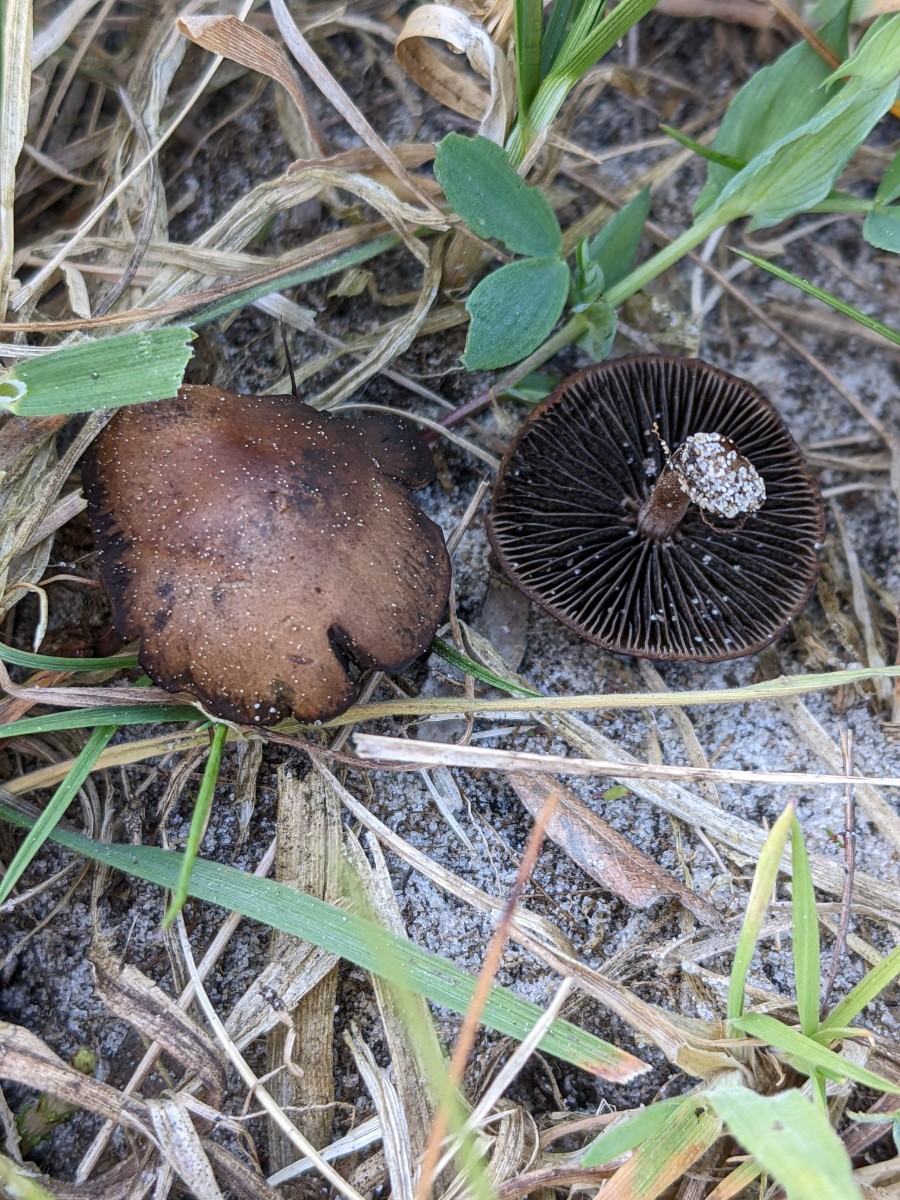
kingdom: Fungi
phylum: Basidiomycota
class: Agaricomycetes
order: Agaricales
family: Bolbitiaceae
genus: Panaeolus
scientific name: Panaeolus fimicola
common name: tidlig glanshat
